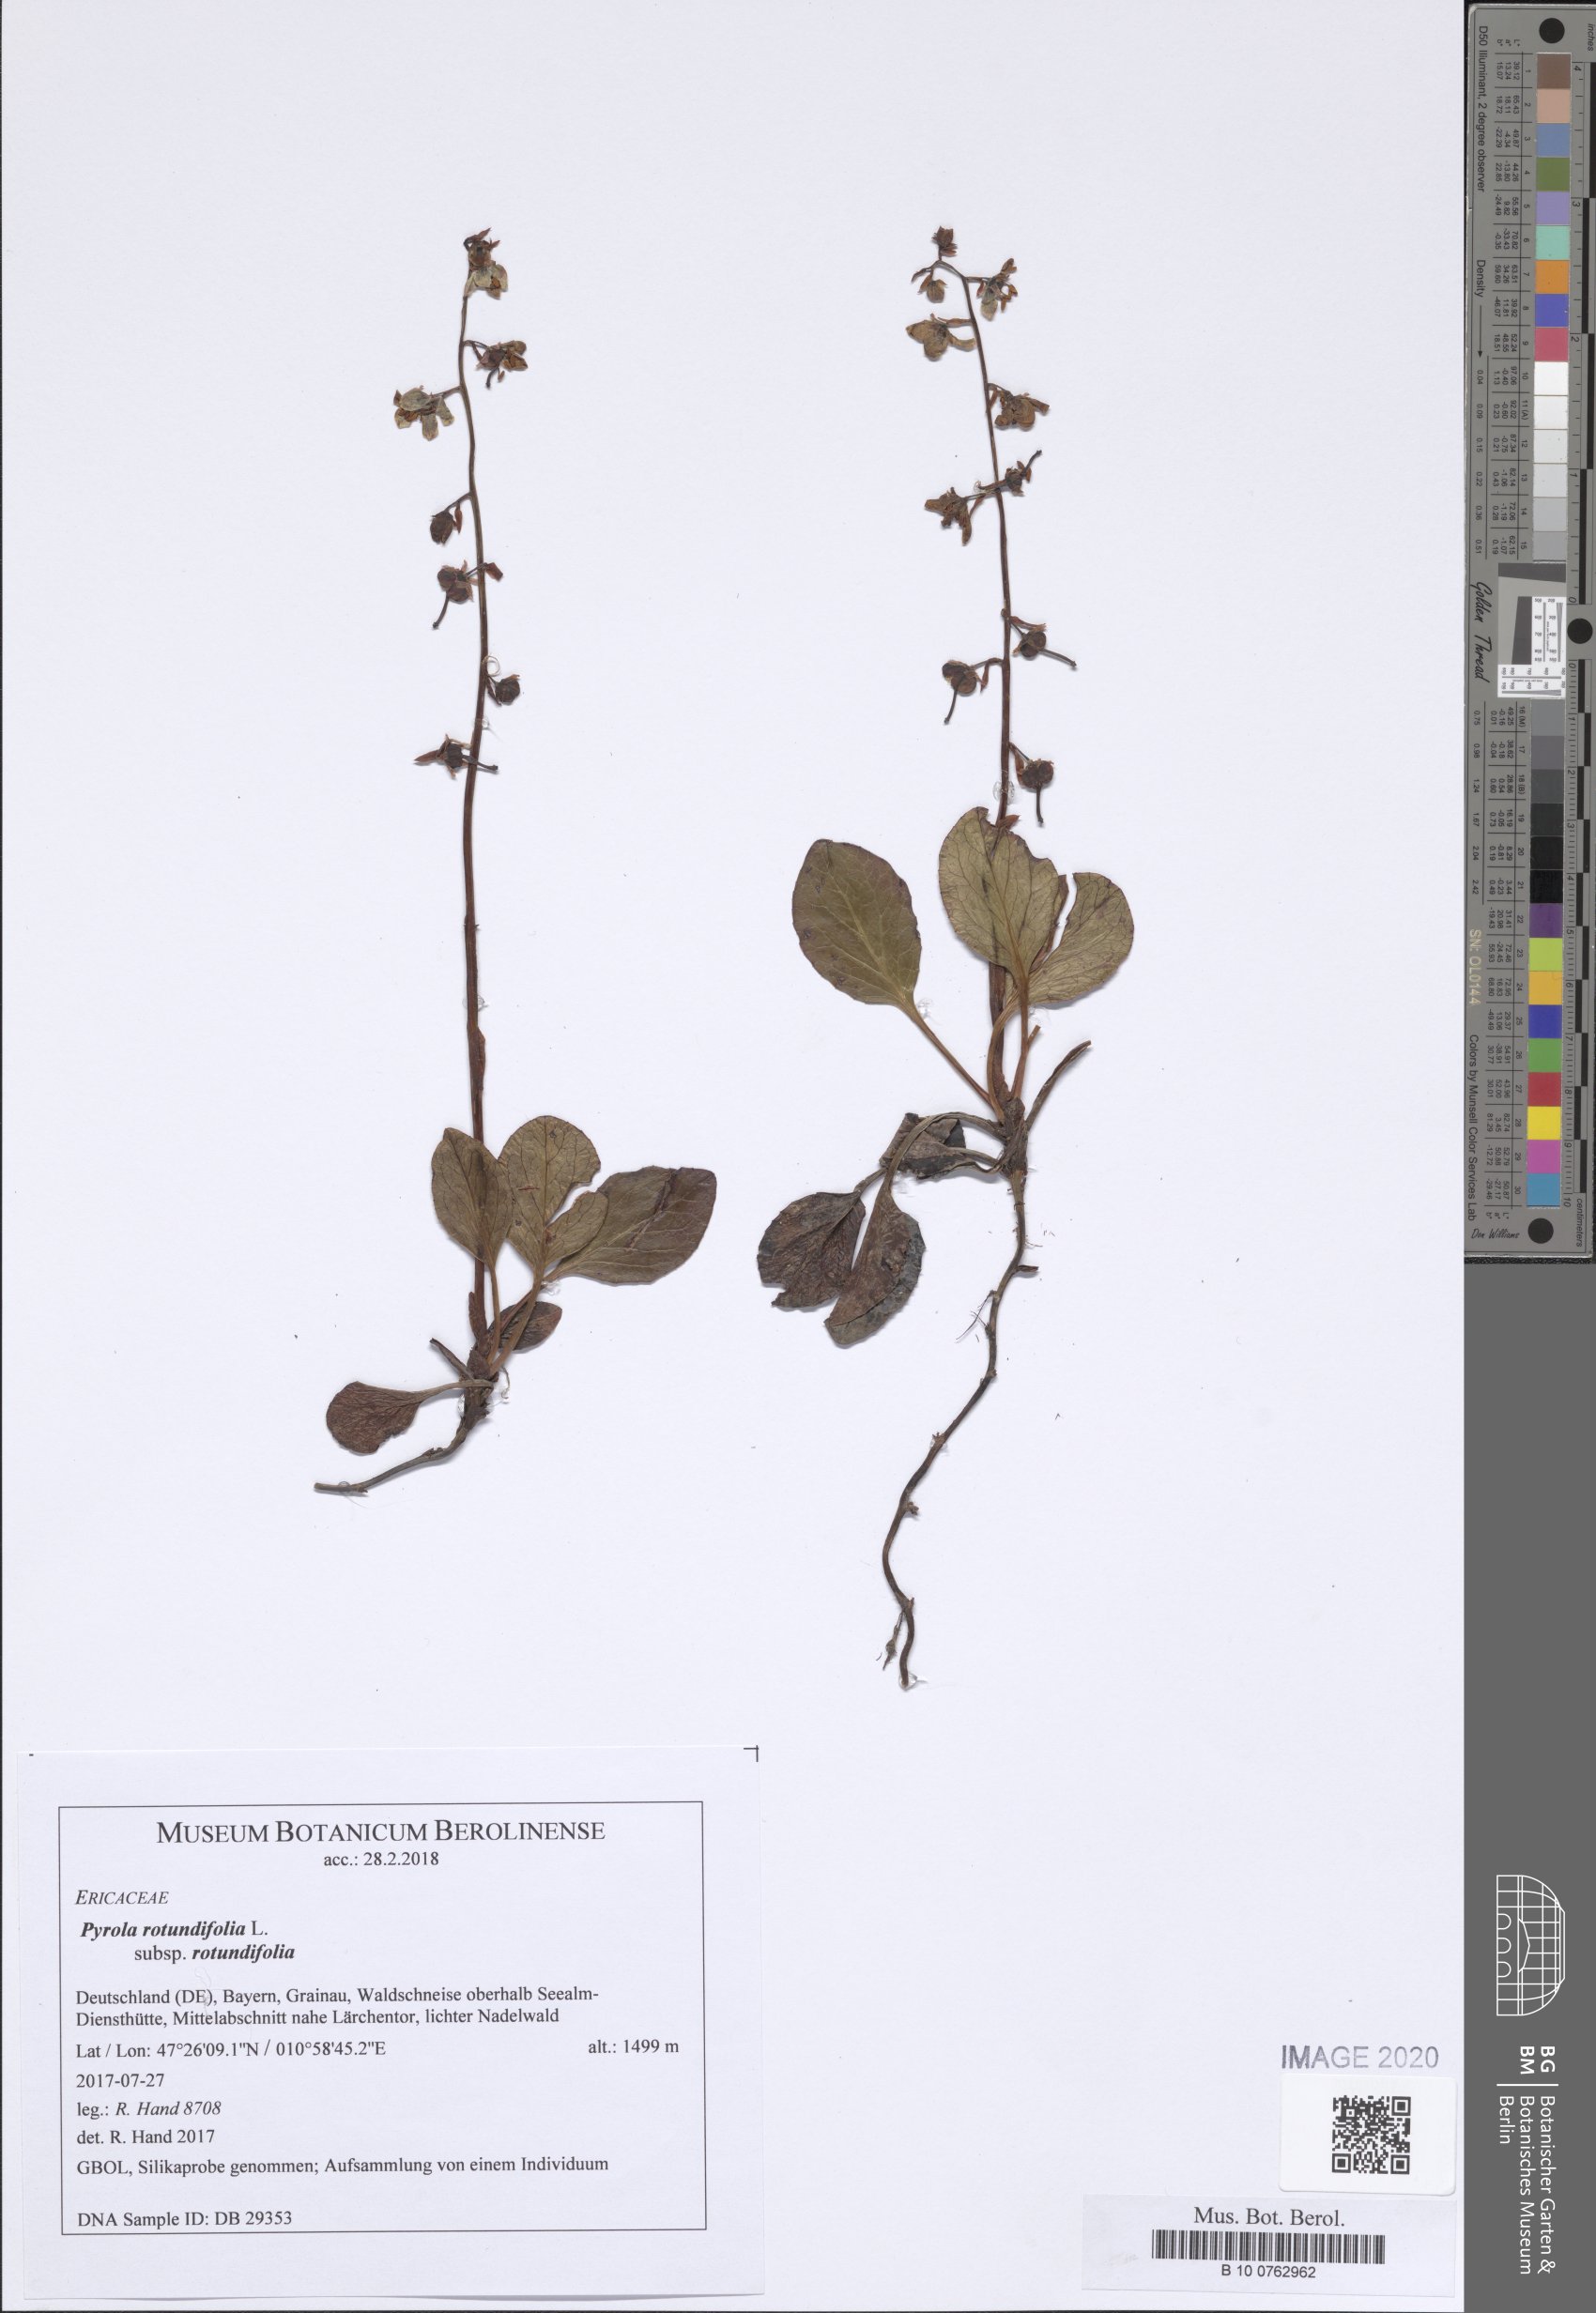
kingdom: Plantae
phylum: Tracheophyta
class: Magnoliopsida
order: Ericales
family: Ericaceae
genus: Pyrola
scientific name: Pyrola rotundifolia
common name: Round-leaved wintergreen
